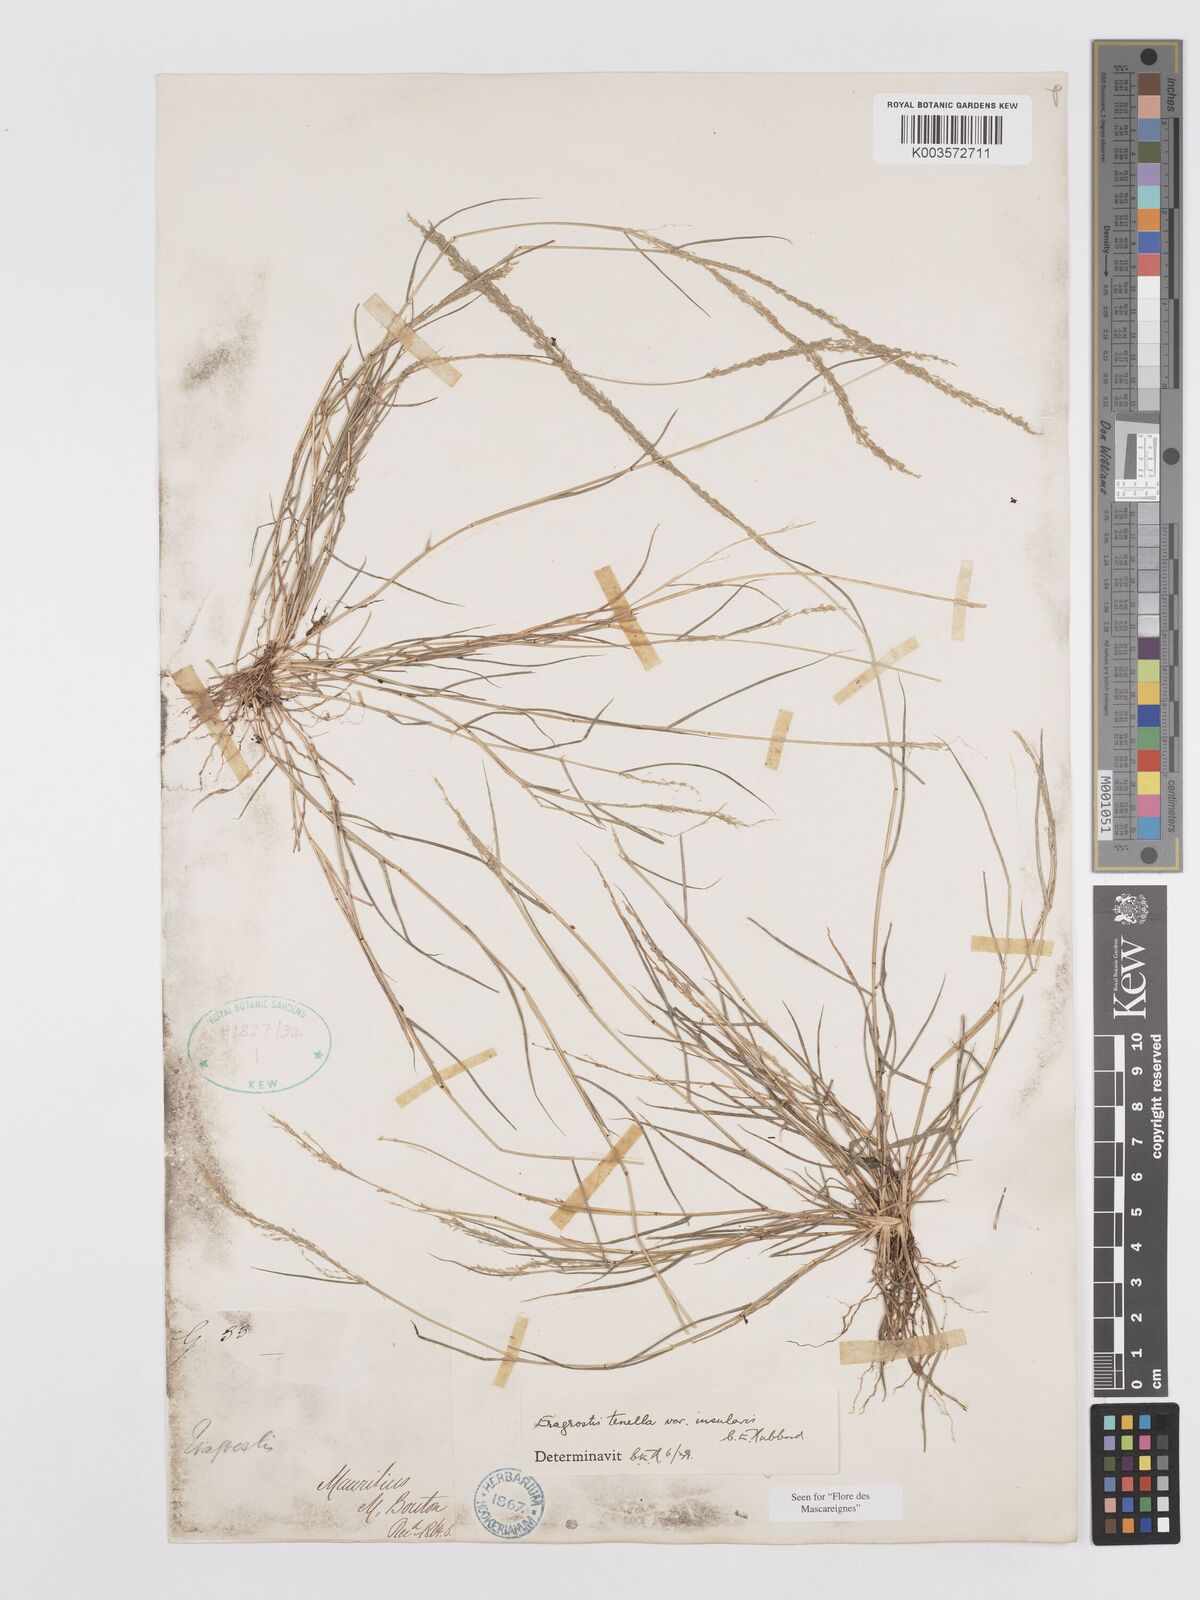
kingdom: Plantae
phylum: Tracheophyta
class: Liliopsida
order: Poales
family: Poaceae
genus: Eragrostis
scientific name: Eragrostis tenella
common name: Japanese lovegrass
